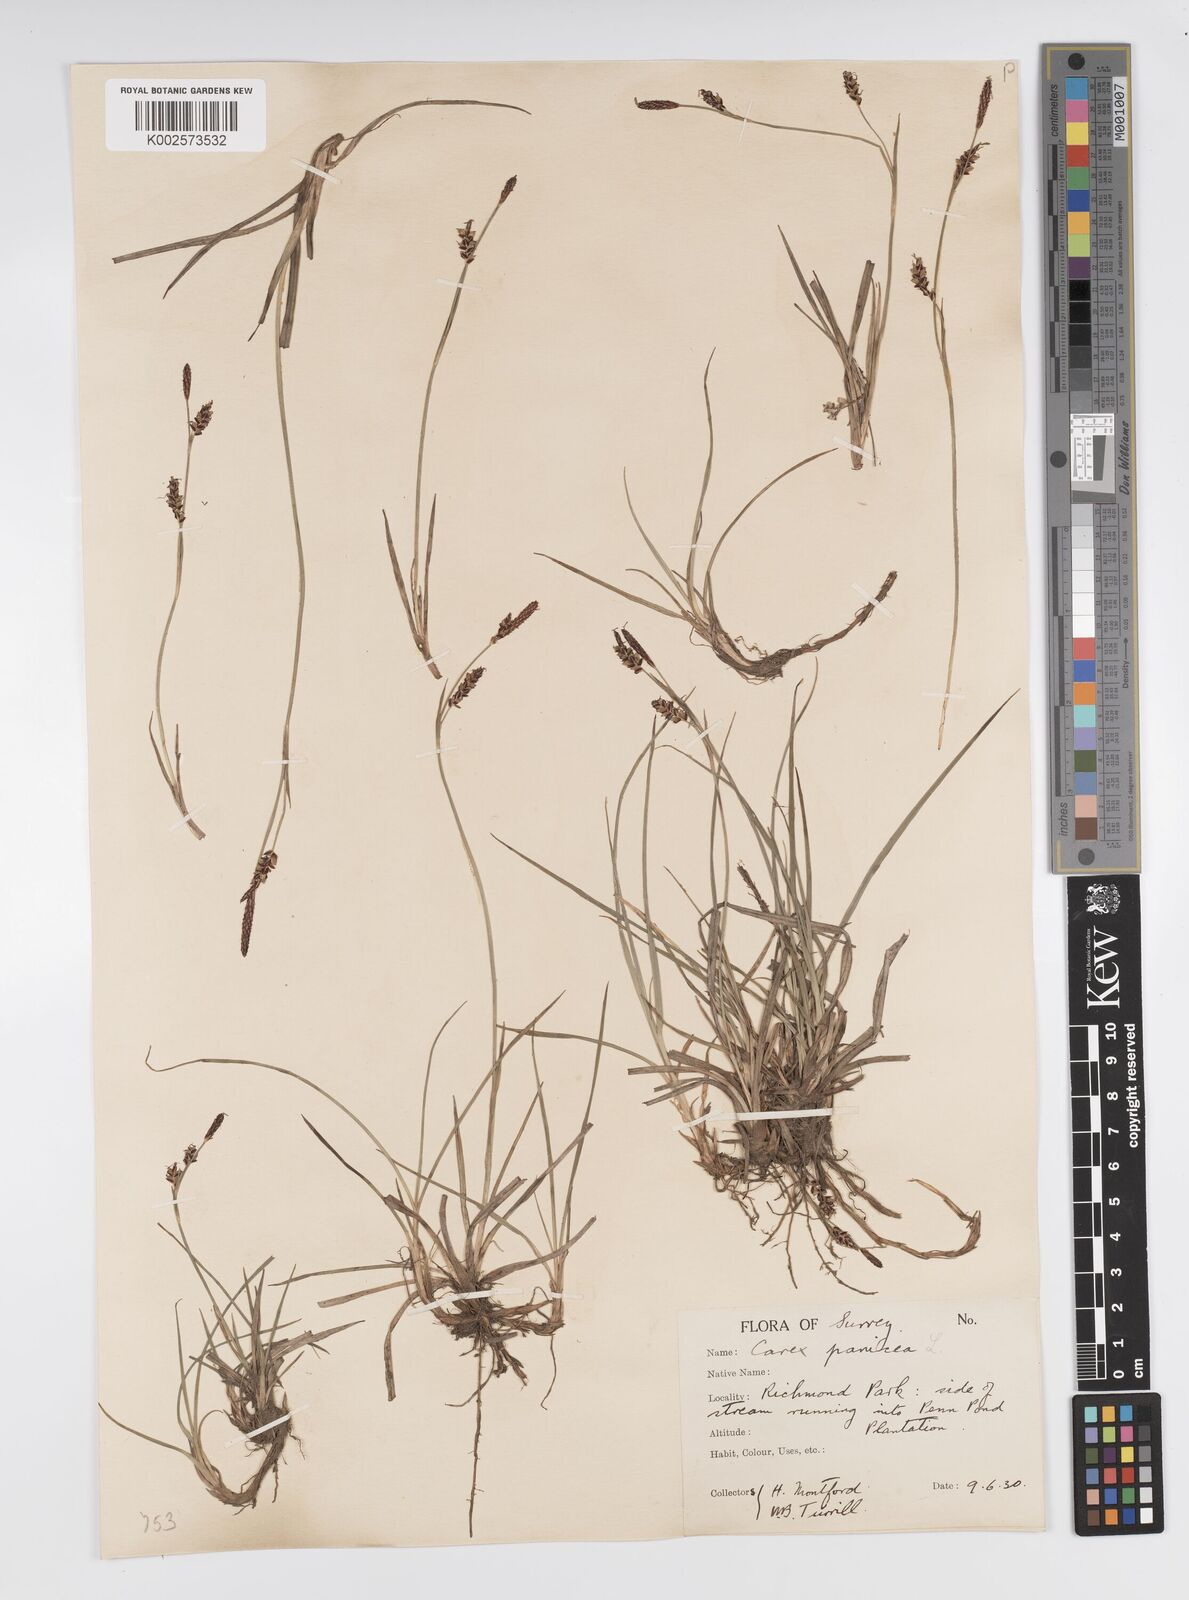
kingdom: Plantae
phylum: Tracheophyta
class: Liliopsida
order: Poales
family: Cyperaceae
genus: Carex
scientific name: Carex panicea
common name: Carnation sedge
